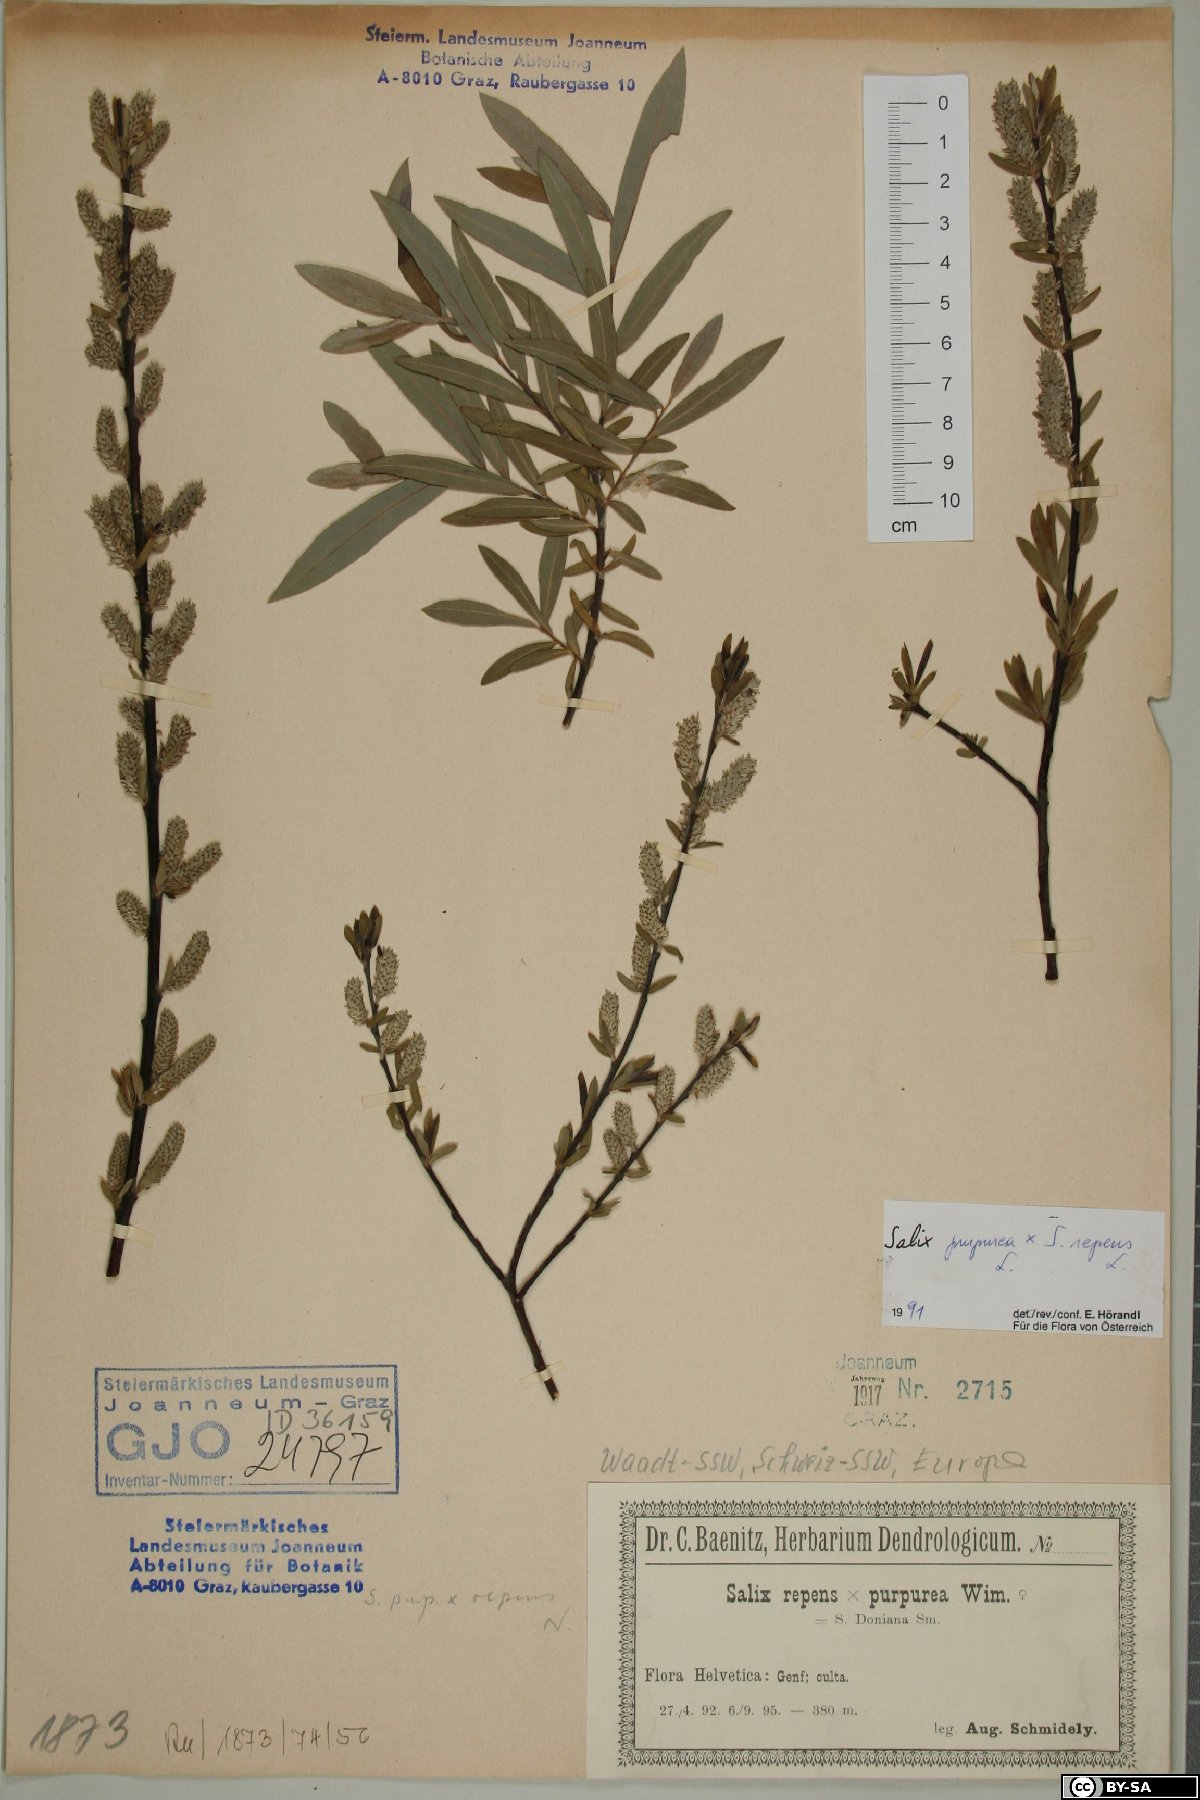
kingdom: Plantae
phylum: Tracheophyta
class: Magnoliopsida
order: Malpighiales
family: Salicaceae
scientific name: Salicaceae
